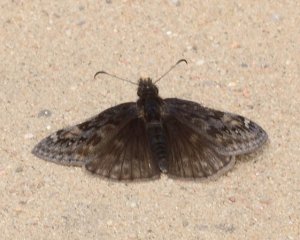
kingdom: Animalia
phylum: Arthropoda
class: Insecta
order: Lepidoptera
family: Hesperiidae
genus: Gesta
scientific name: Gesta
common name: Juvenal's Duskywing
